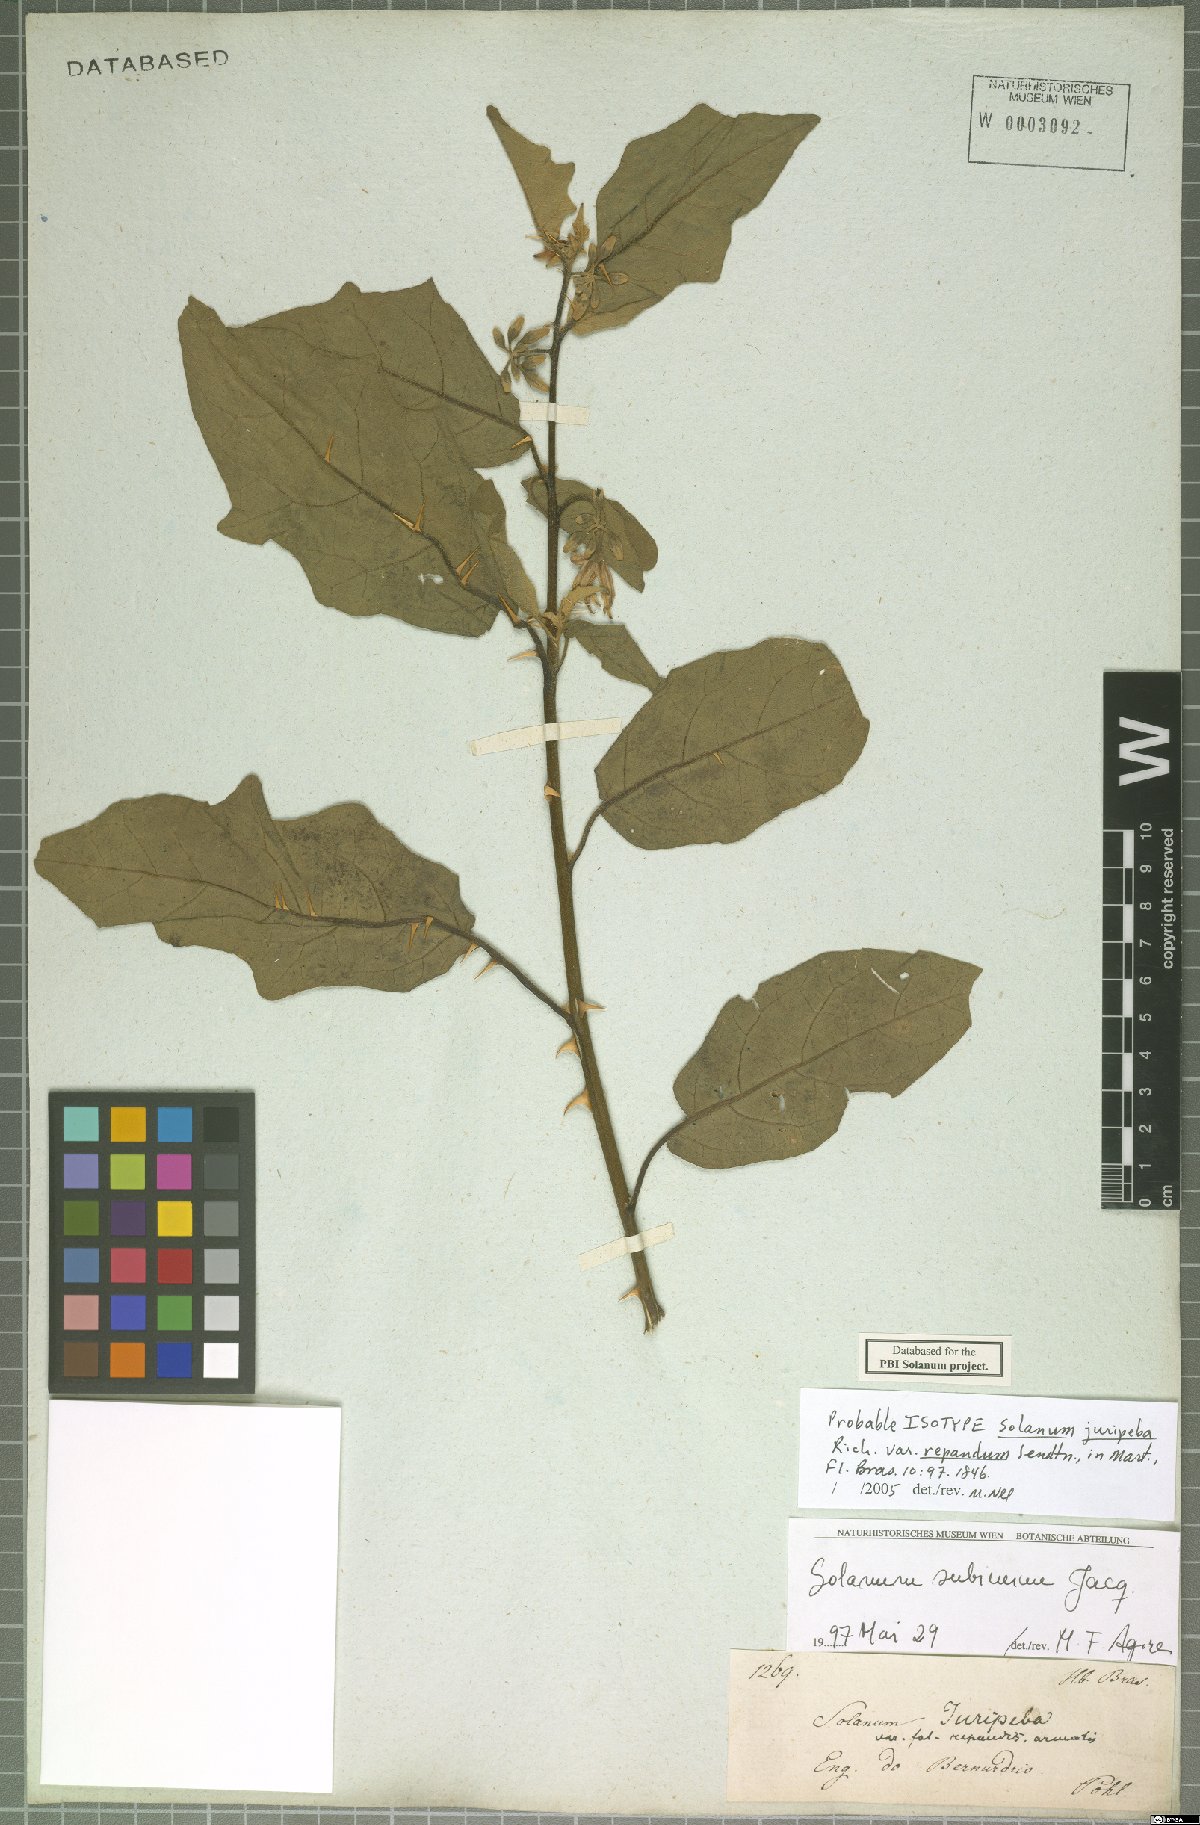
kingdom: Plantae
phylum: Tracheophyta
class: Magnoliopsida
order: Solanales
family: Solanaceae
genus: Solanum
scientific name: Solanum subinerme
